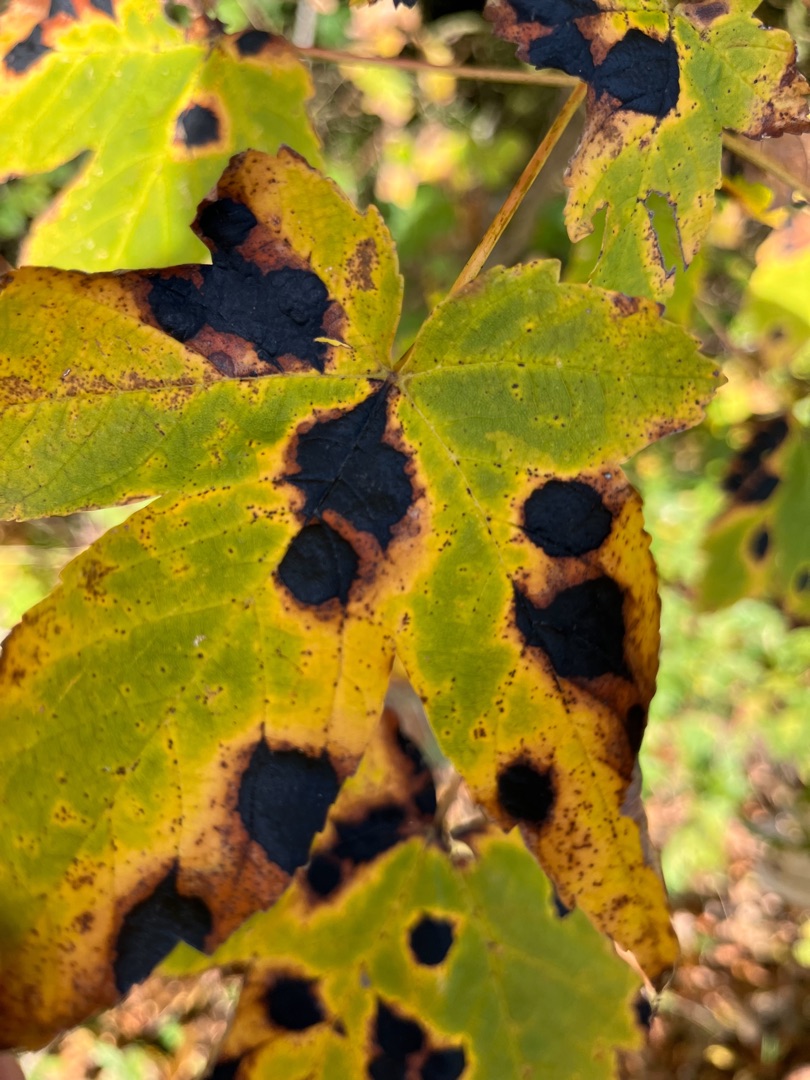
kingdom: Fungi
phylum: Ascomycota
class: Leotiomycetes
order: Rhytismatales
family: Rhytismataceae
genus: Rhytisma
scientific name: Rhytisma acerinum
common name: Ahorn-rynkeplet
